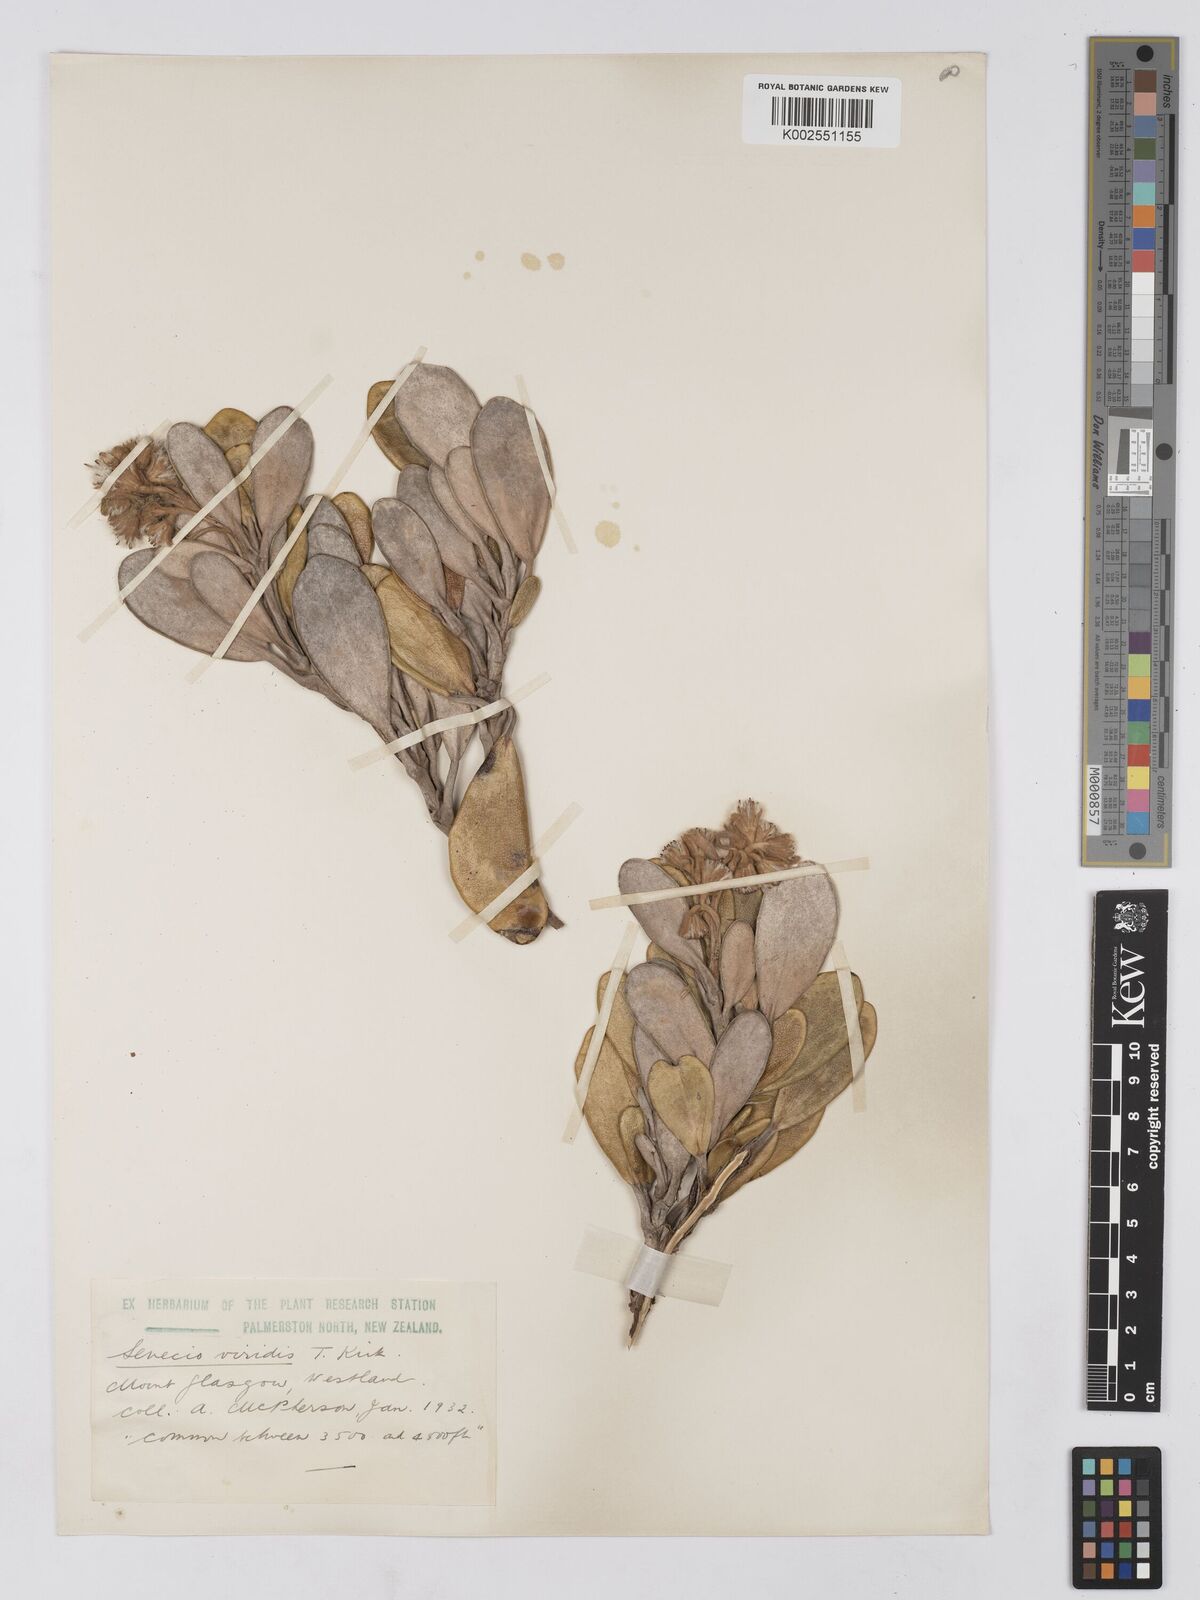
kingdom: Plantae
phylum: Tracheophyta
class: Magnoliopsida
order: Asterales
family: Asteraceae
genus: Brachyglottis
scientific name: Brachyglottis
